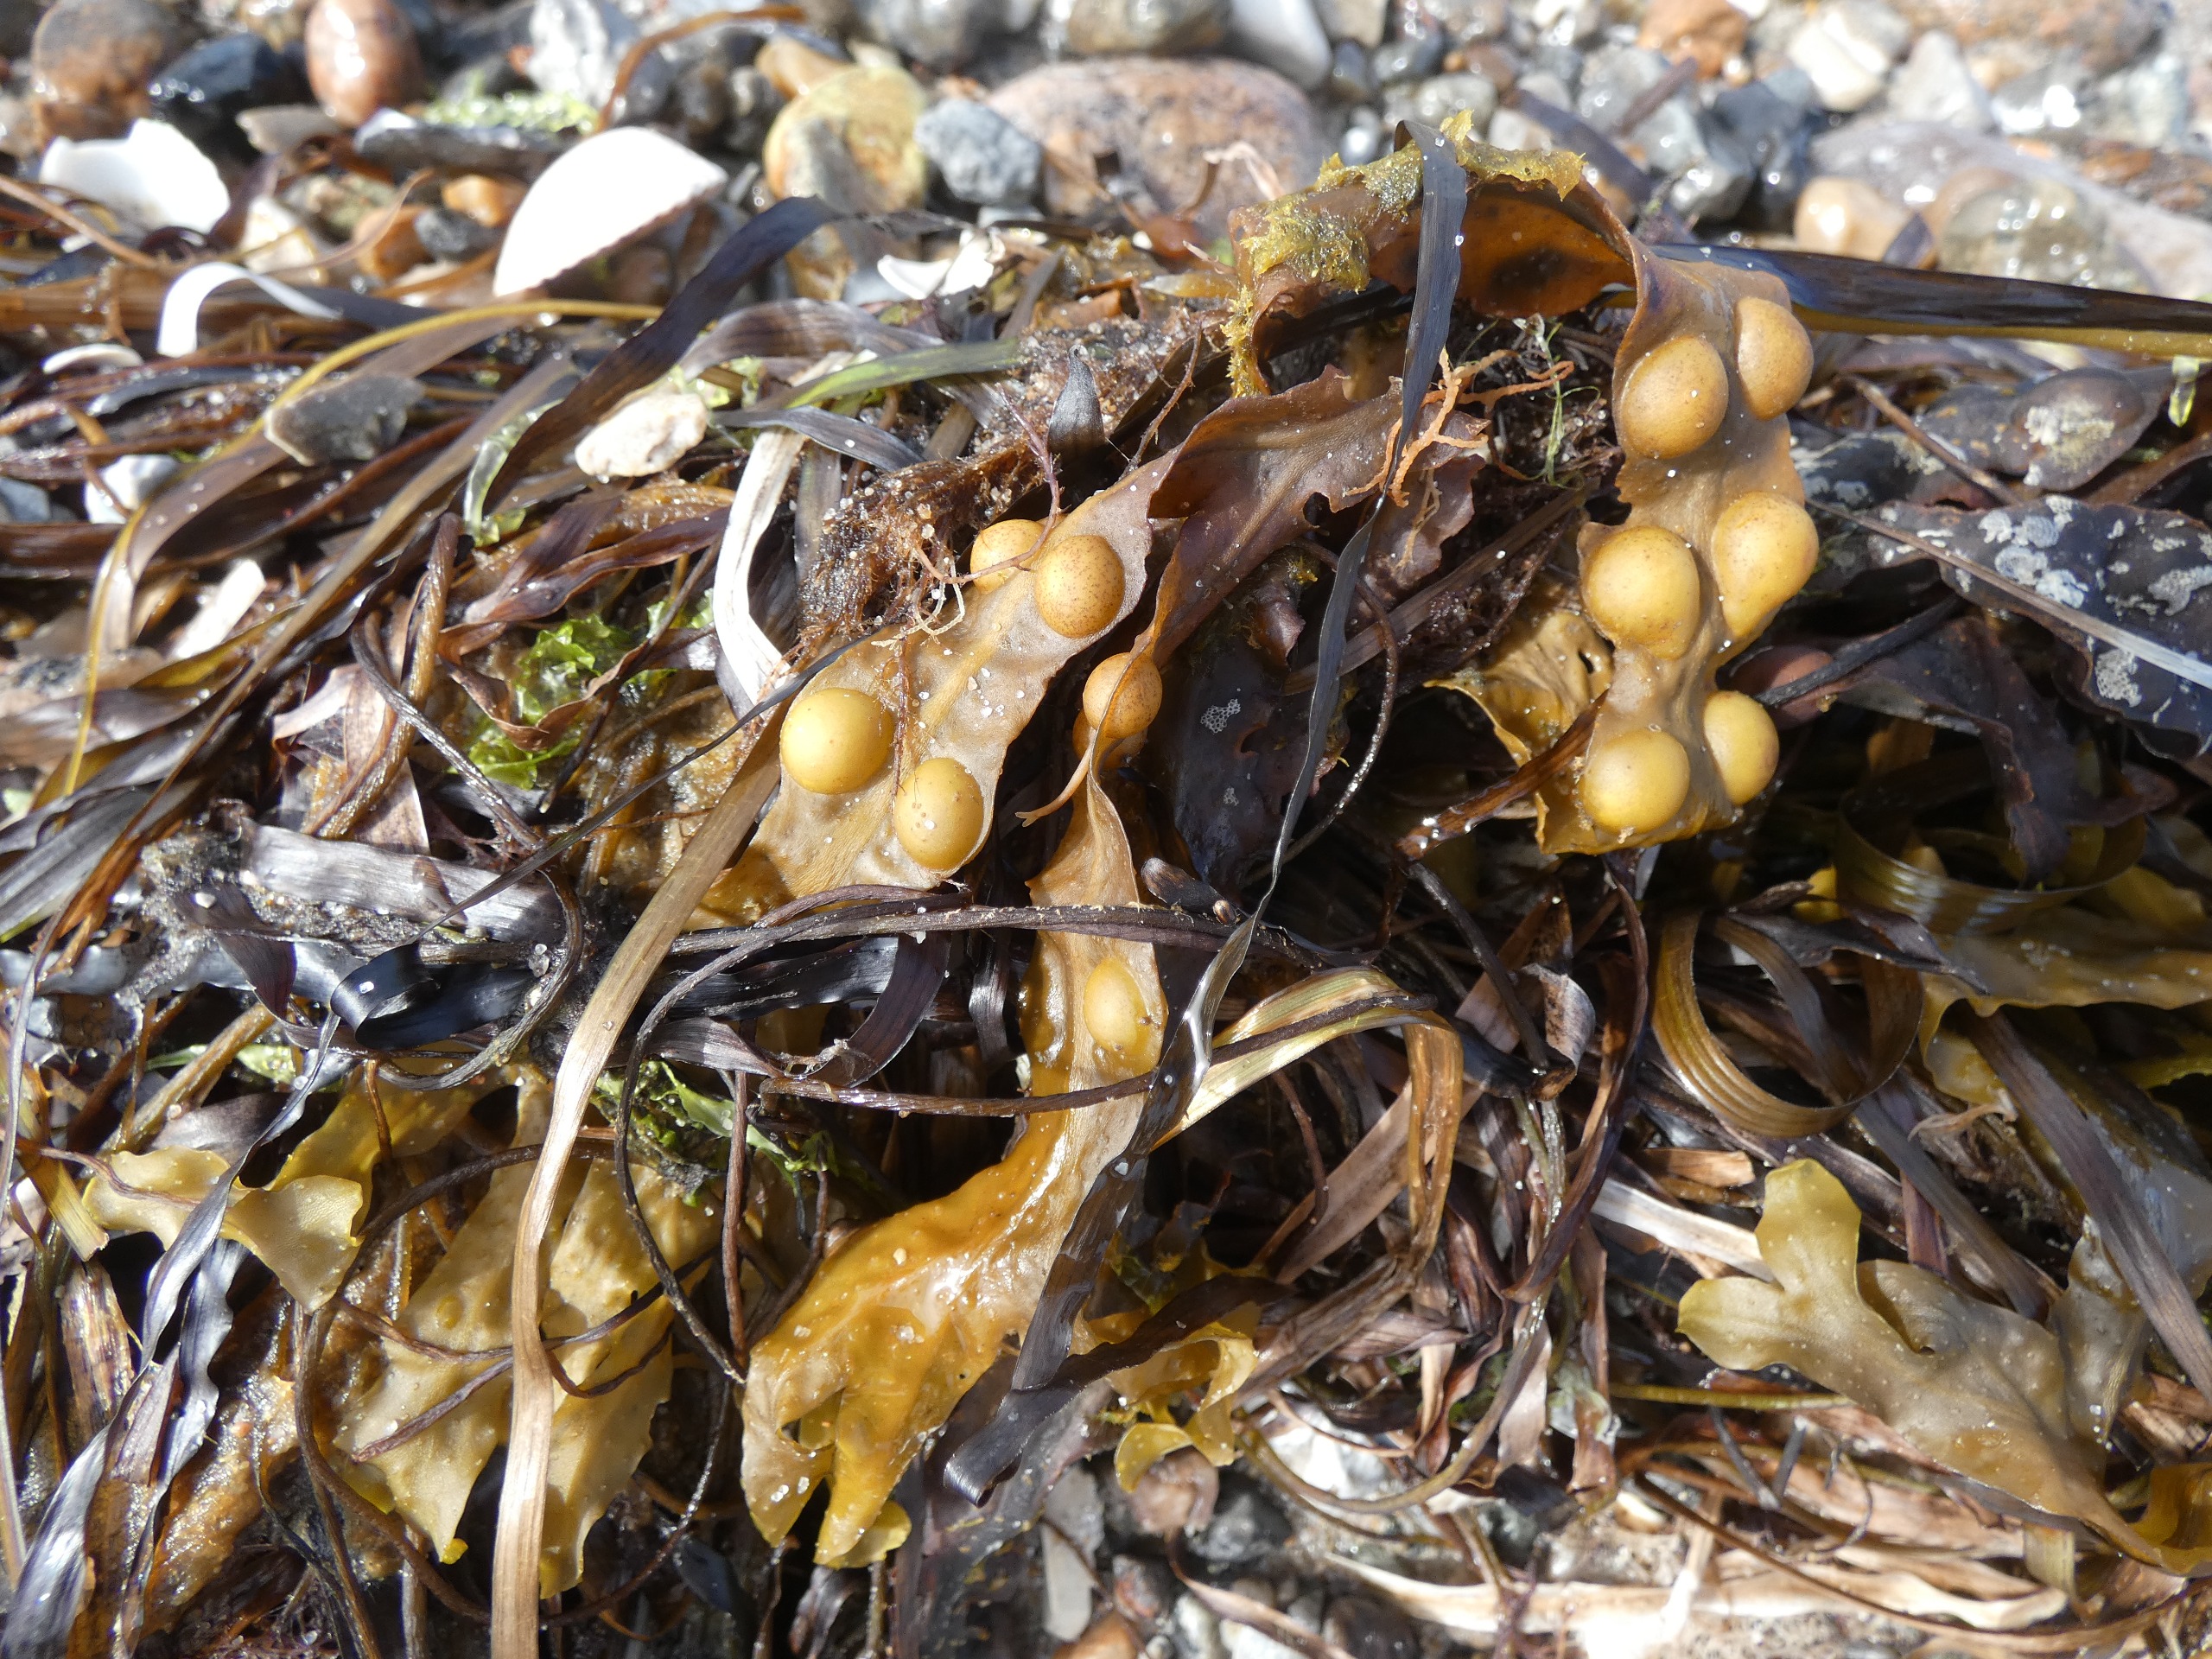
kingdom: Chromista
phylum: Ochrophyta
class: Phaeophyceae
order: Fucales
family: Fucaceae
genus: Fucus
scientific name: Fucus vesiculosus
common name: Blæretang
